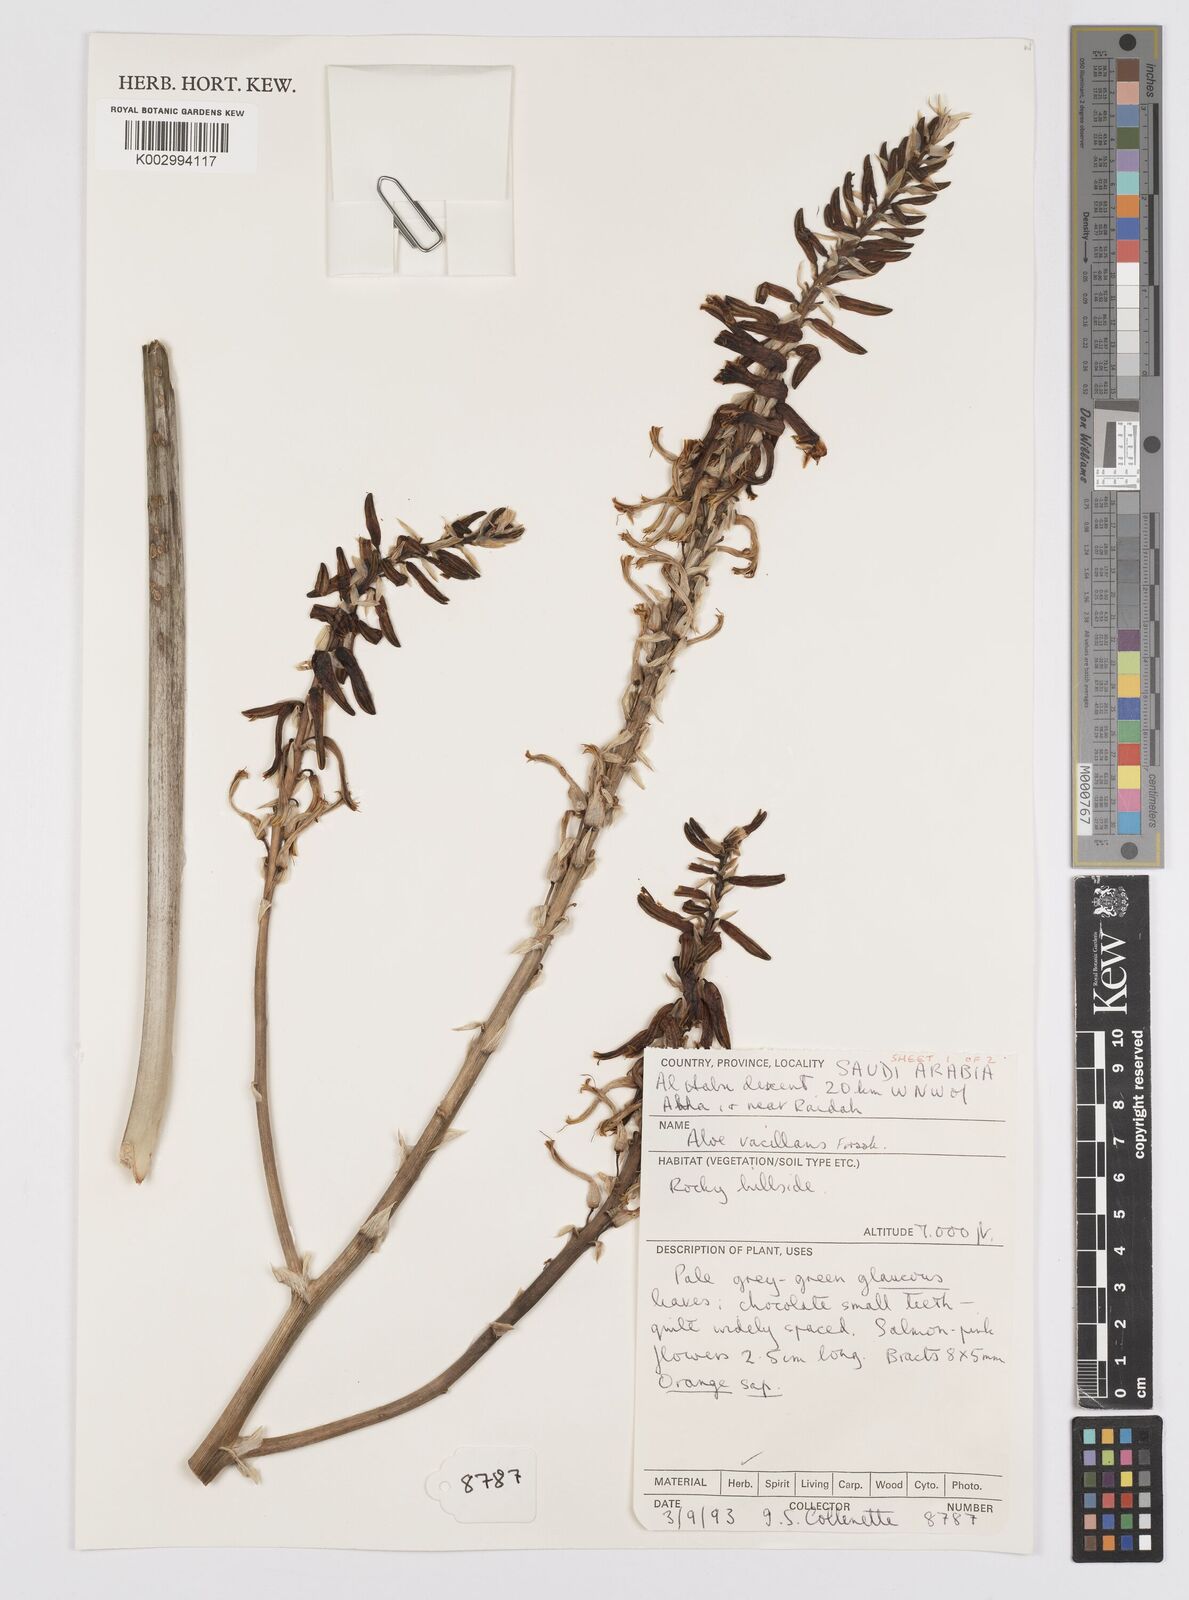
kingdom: Plantae
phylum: Tracheophyta
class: Liliopsida
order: Asparagales
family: Asphodelaceae
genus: Aloe
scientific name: Aloe vacillans
